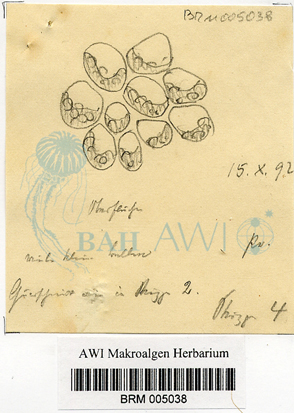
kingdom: Plantae
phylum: Chlorophyta
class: Ulvophyceae
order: Ulvales
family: Ulvaceae
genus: Ulva
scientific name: Ulva
